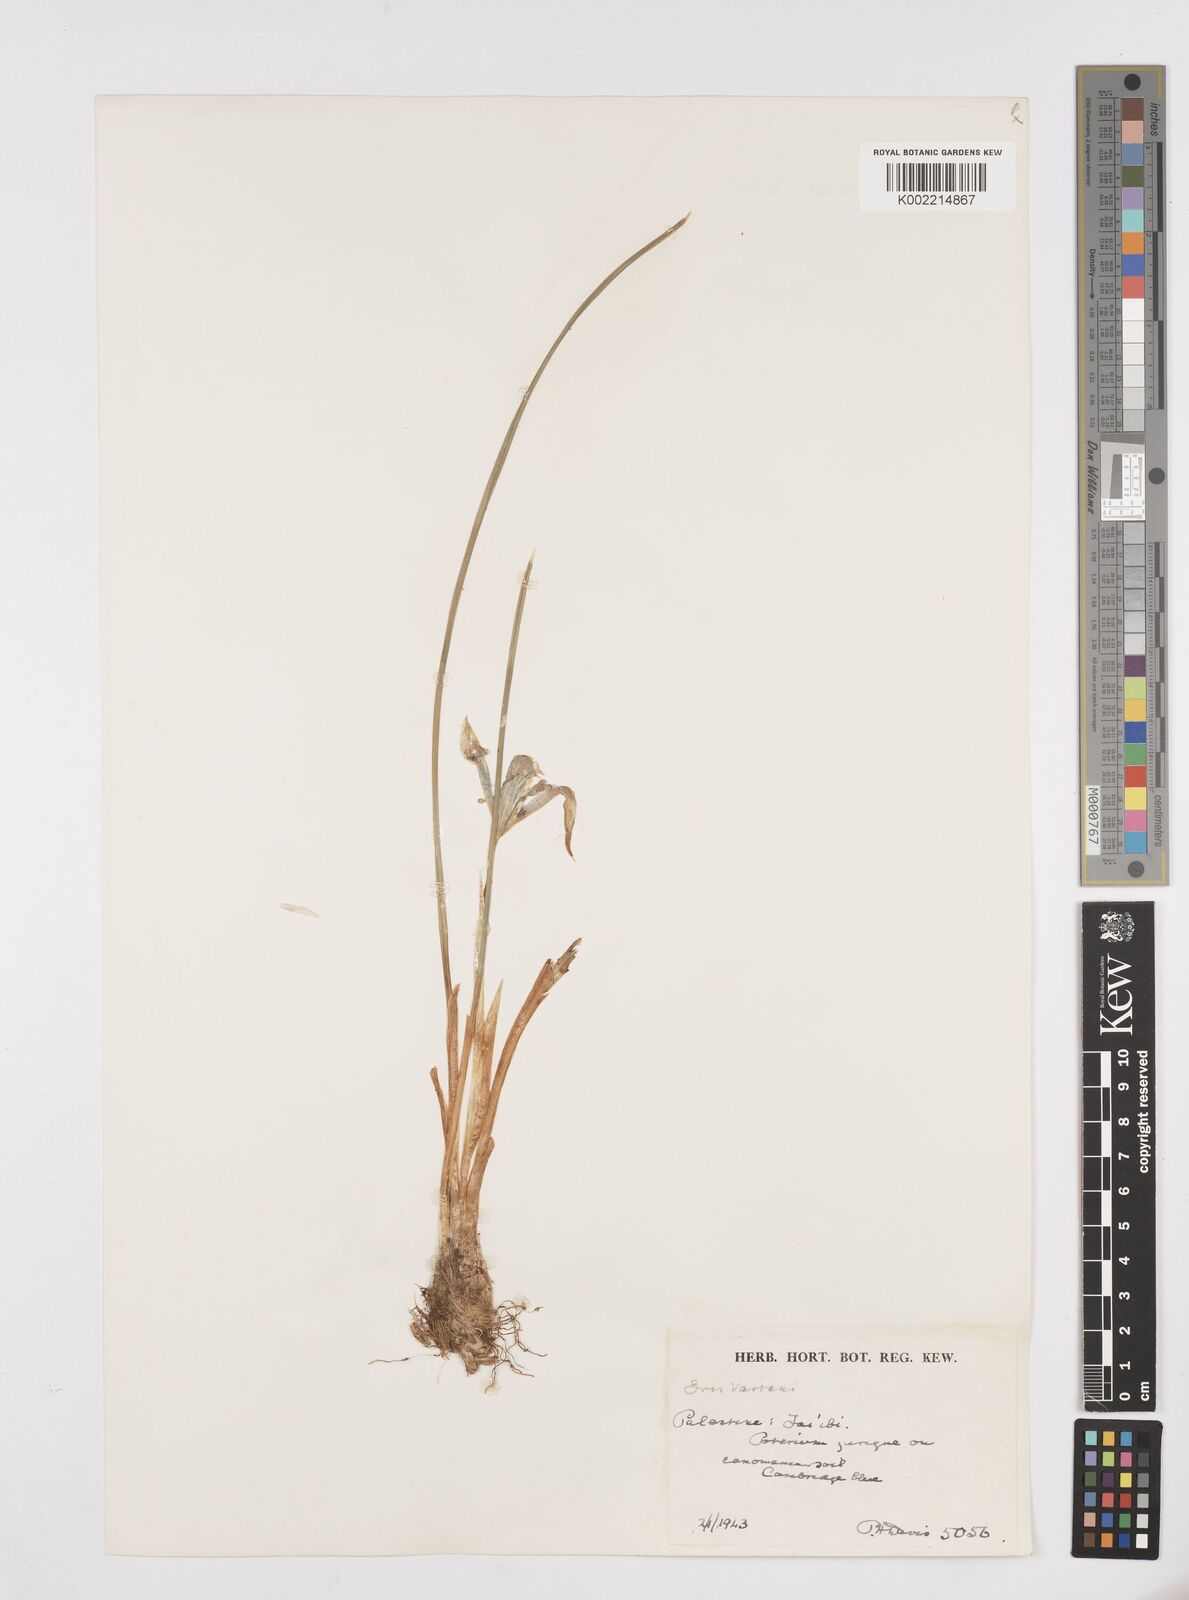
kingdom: Plantae
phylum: Tracheophyta
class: Liliopsida
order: Asparagales
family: Iridaceae
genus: Iris
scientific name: Iris vartanii
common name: Vartanii iris
